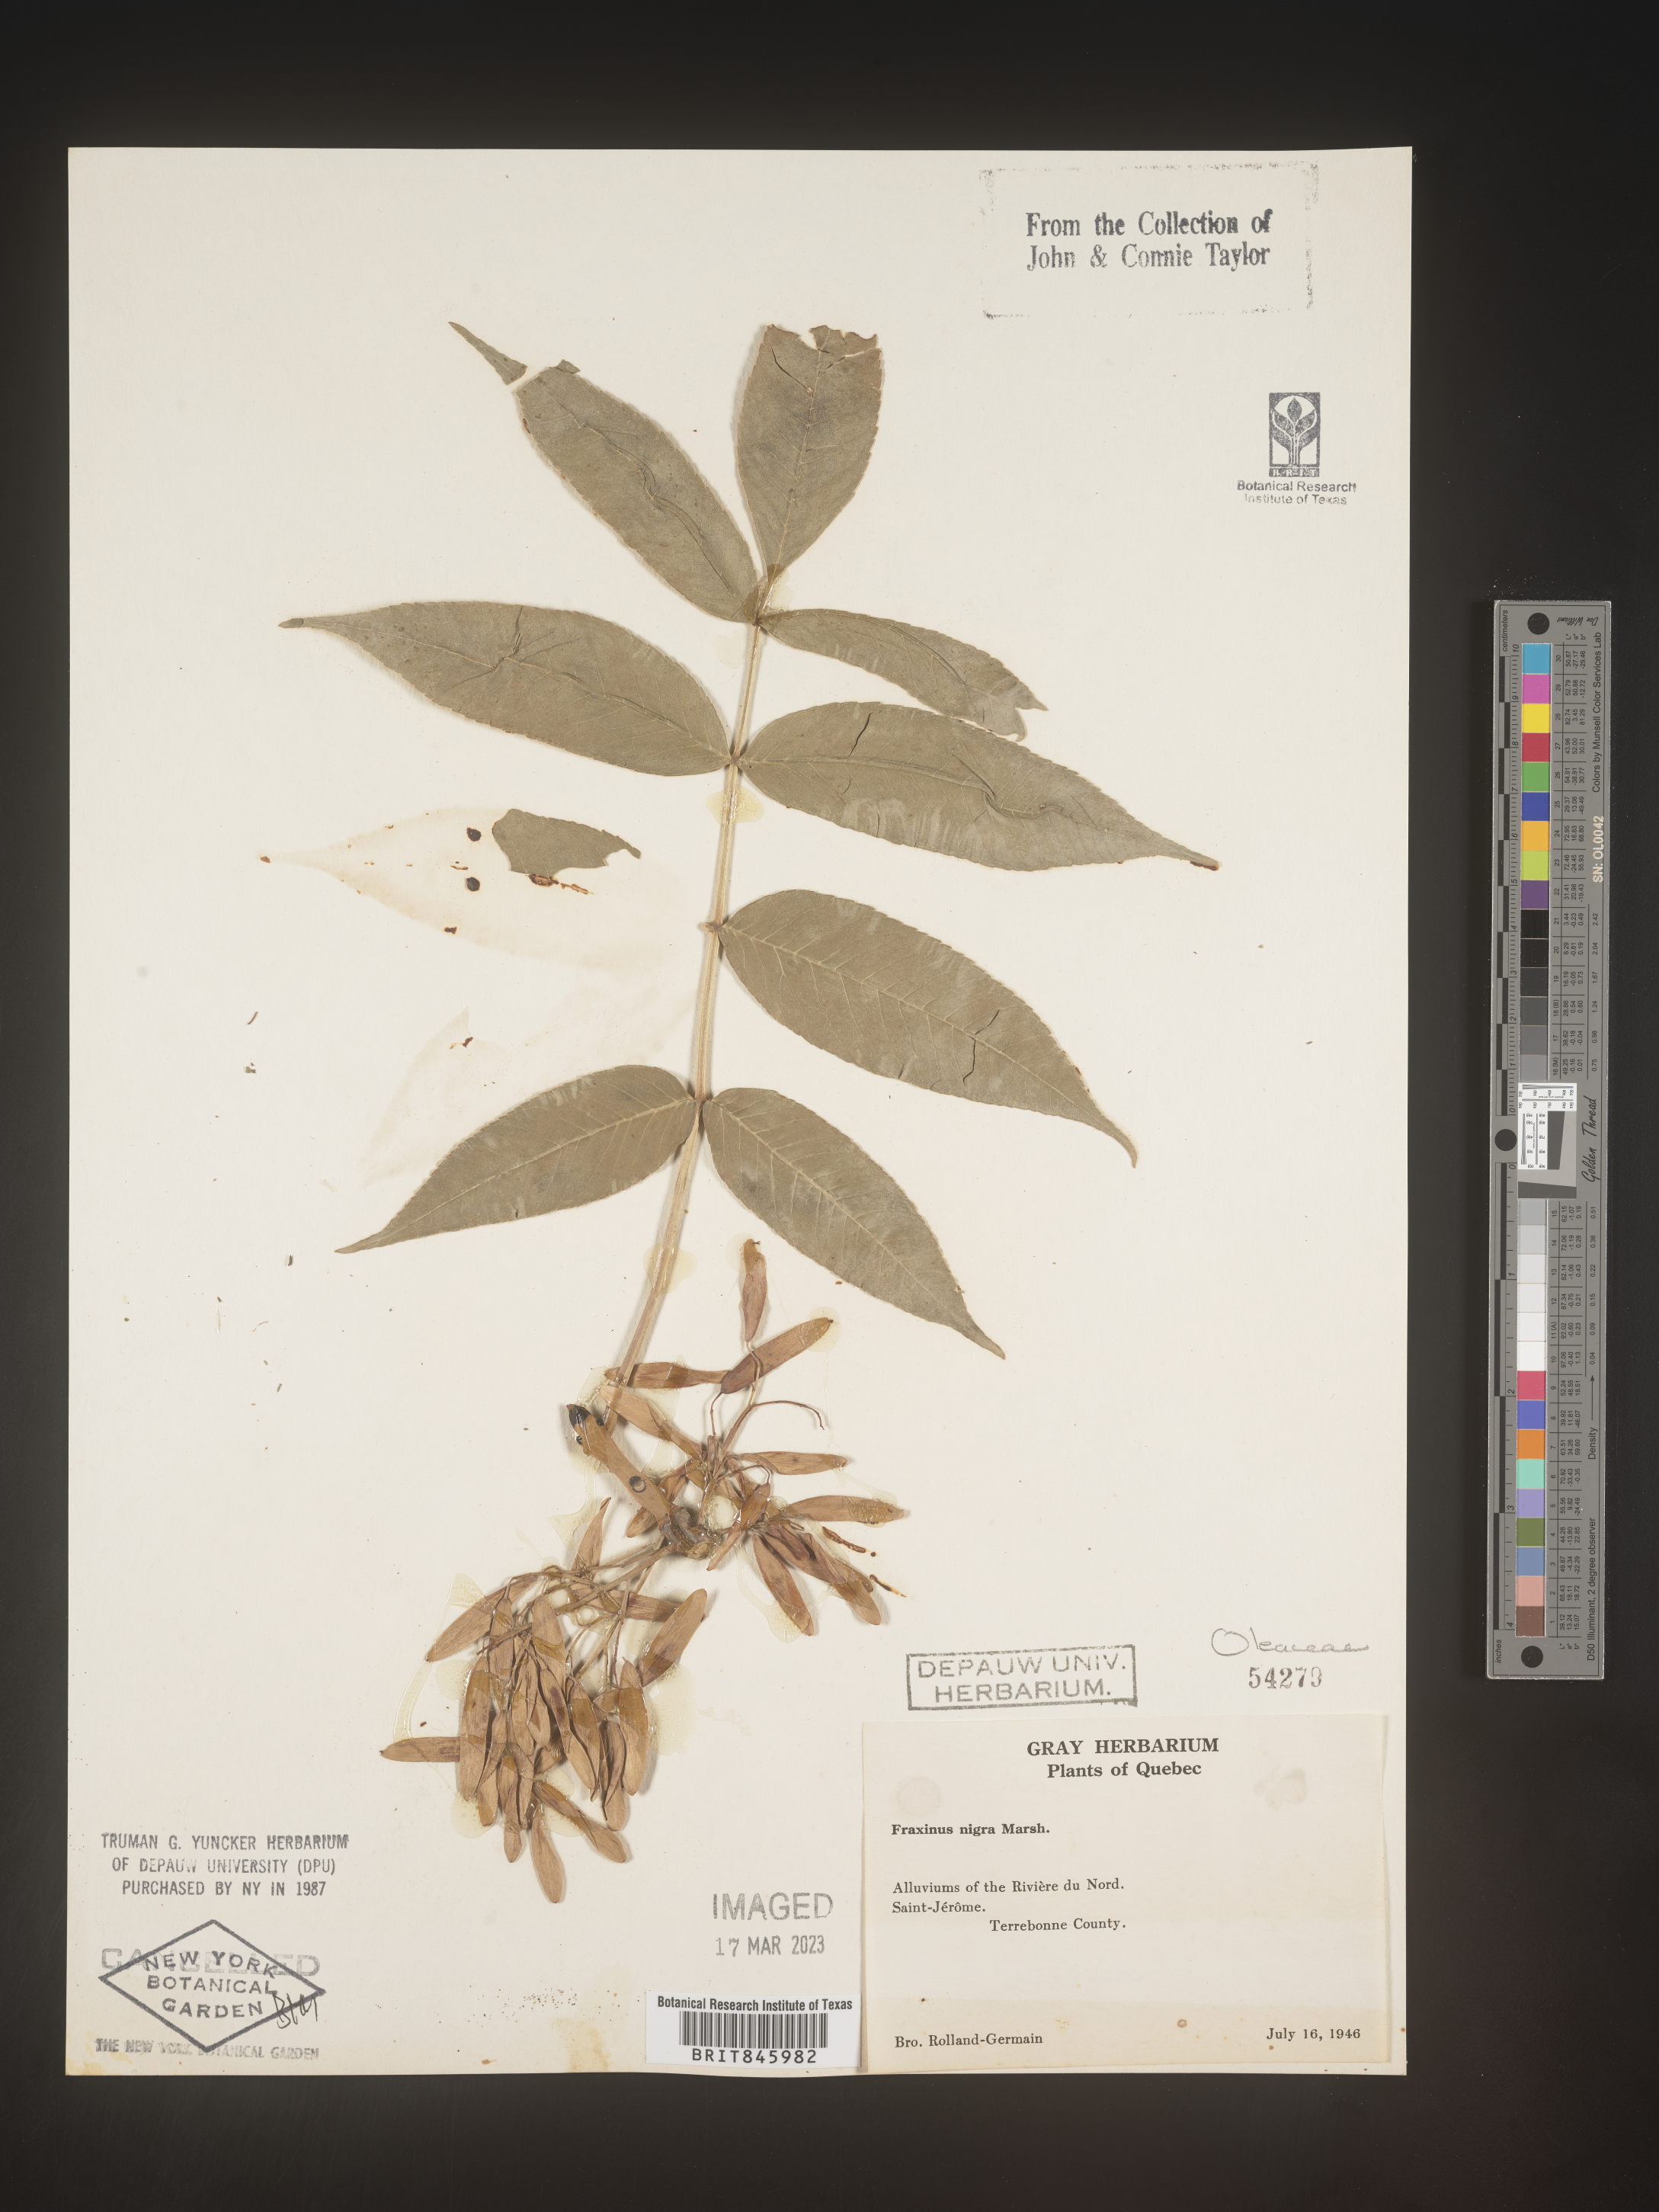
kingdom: Plantae
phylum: Tracheophyta
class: Magnoliopsida
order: Lamiales
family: Oleaceae
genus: Fraxinus
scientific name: Fraxinus nigra
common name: Black ash
